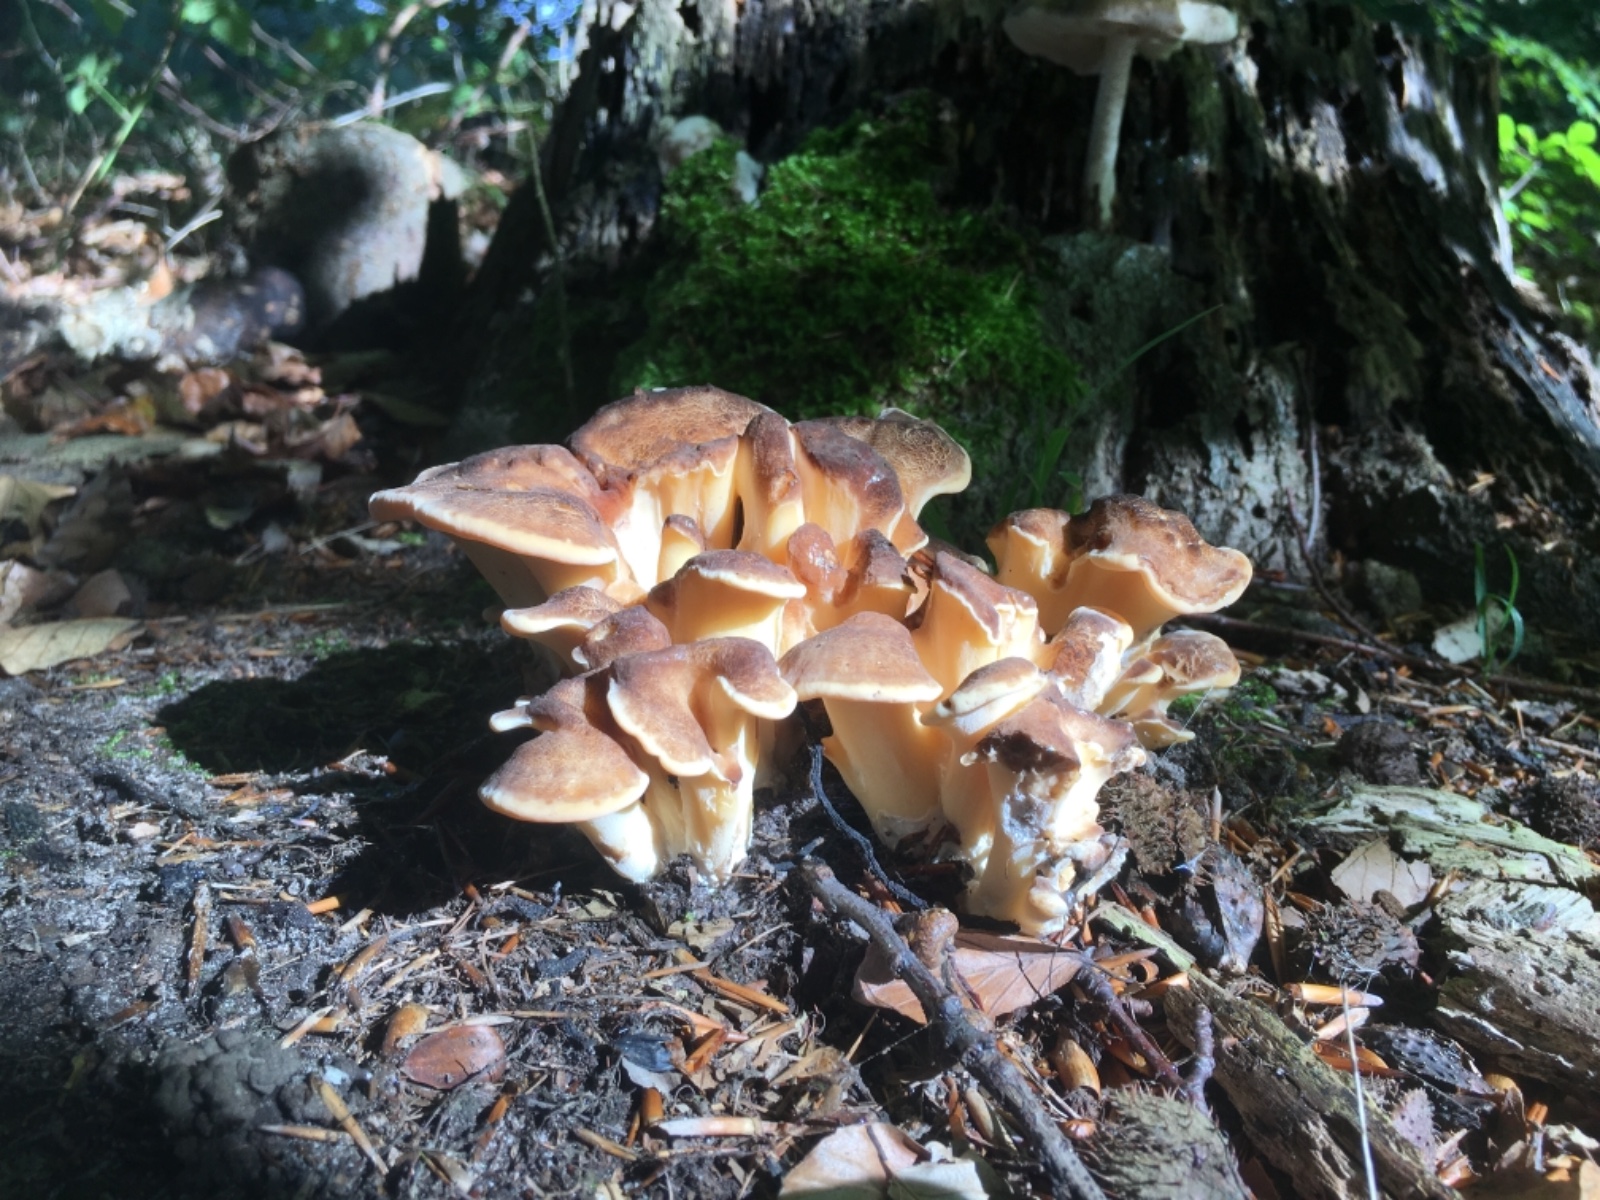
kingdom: Fungi
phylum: Basidiomycota
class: Agaricomycetes
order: Polyporales
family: Meripilaceae
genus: Meripilus
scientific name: Meripilus giganteus
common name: kæmpeporesvamp
